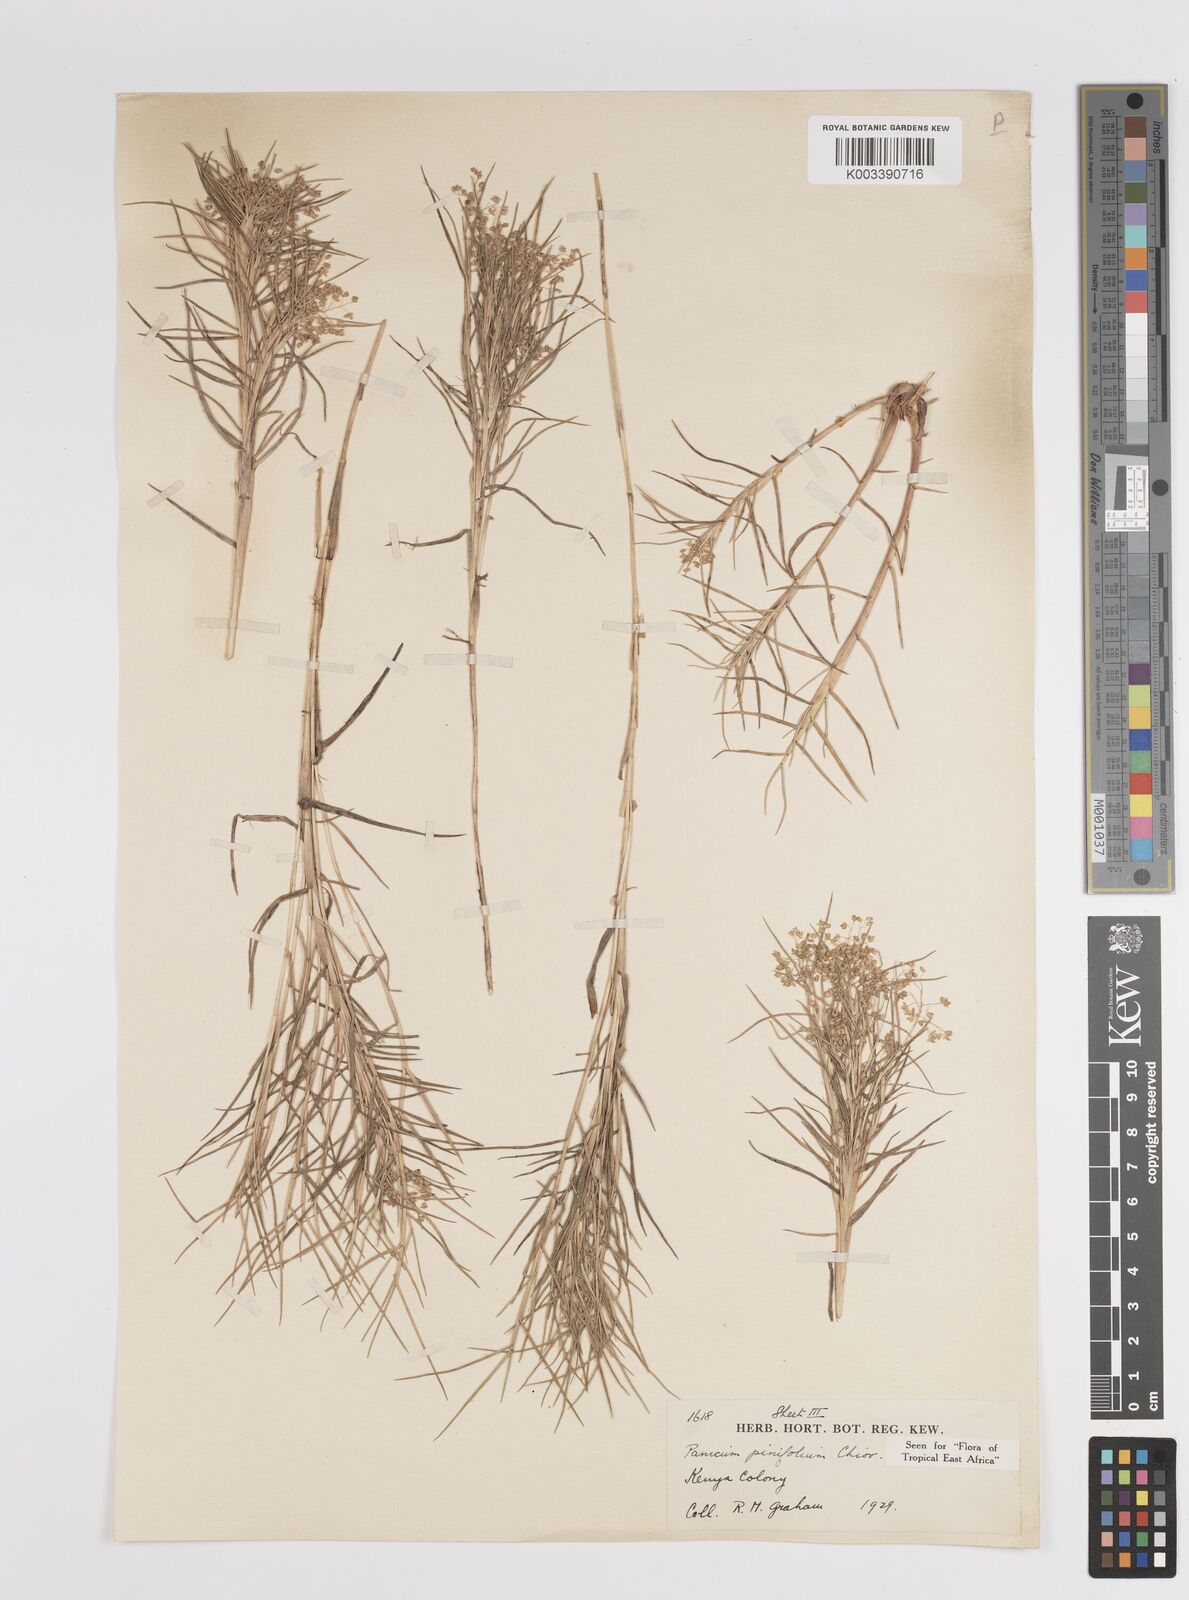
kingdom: Plantae
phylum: Tracheophyta
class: Liliopsida
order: Poales
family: Poaceae
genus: Panicum
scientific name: Panicum pinifolium
